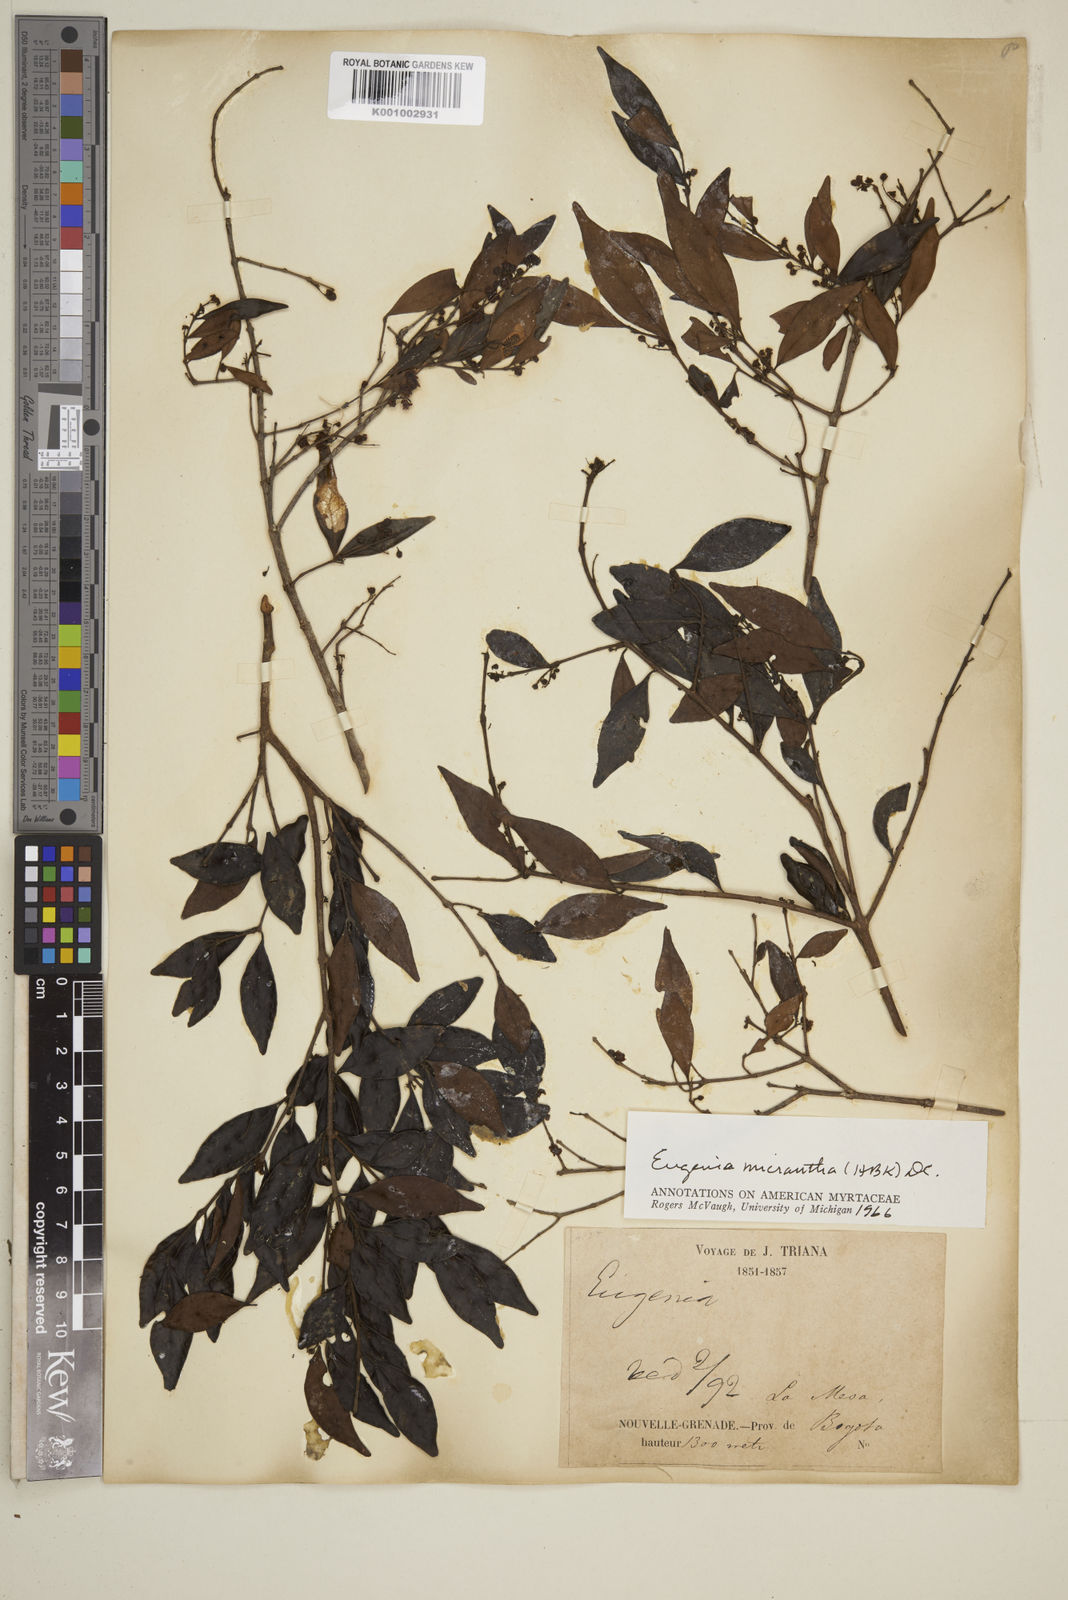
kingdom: Plantae
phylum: Tracheophyta
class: Magnoliopsida
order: Myrtales
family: Myrtaceae
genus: Eugenia
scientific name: Eugenia monticola
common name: Birds berry
